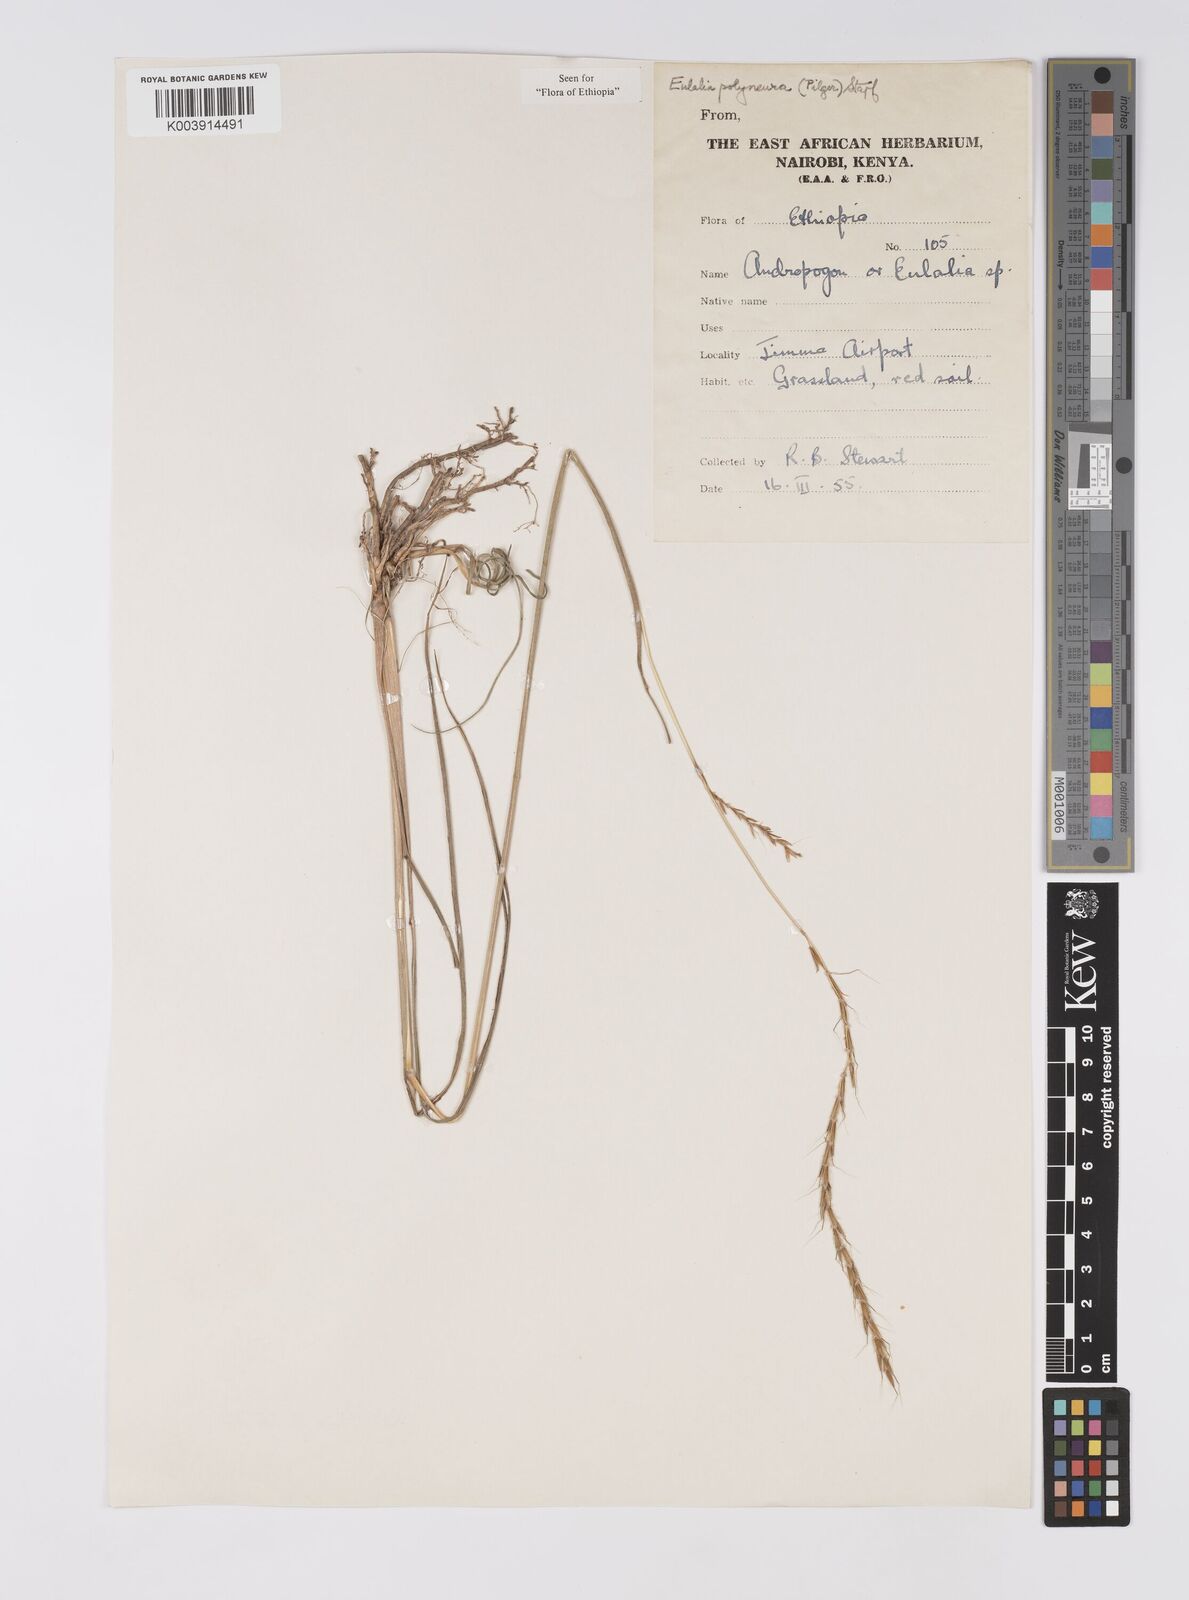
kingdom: Plantae
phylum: Tracheophyta
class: Liliopsida
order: Poales
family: Poaceae
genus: Eulalia
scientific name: Eulalia polyneura
